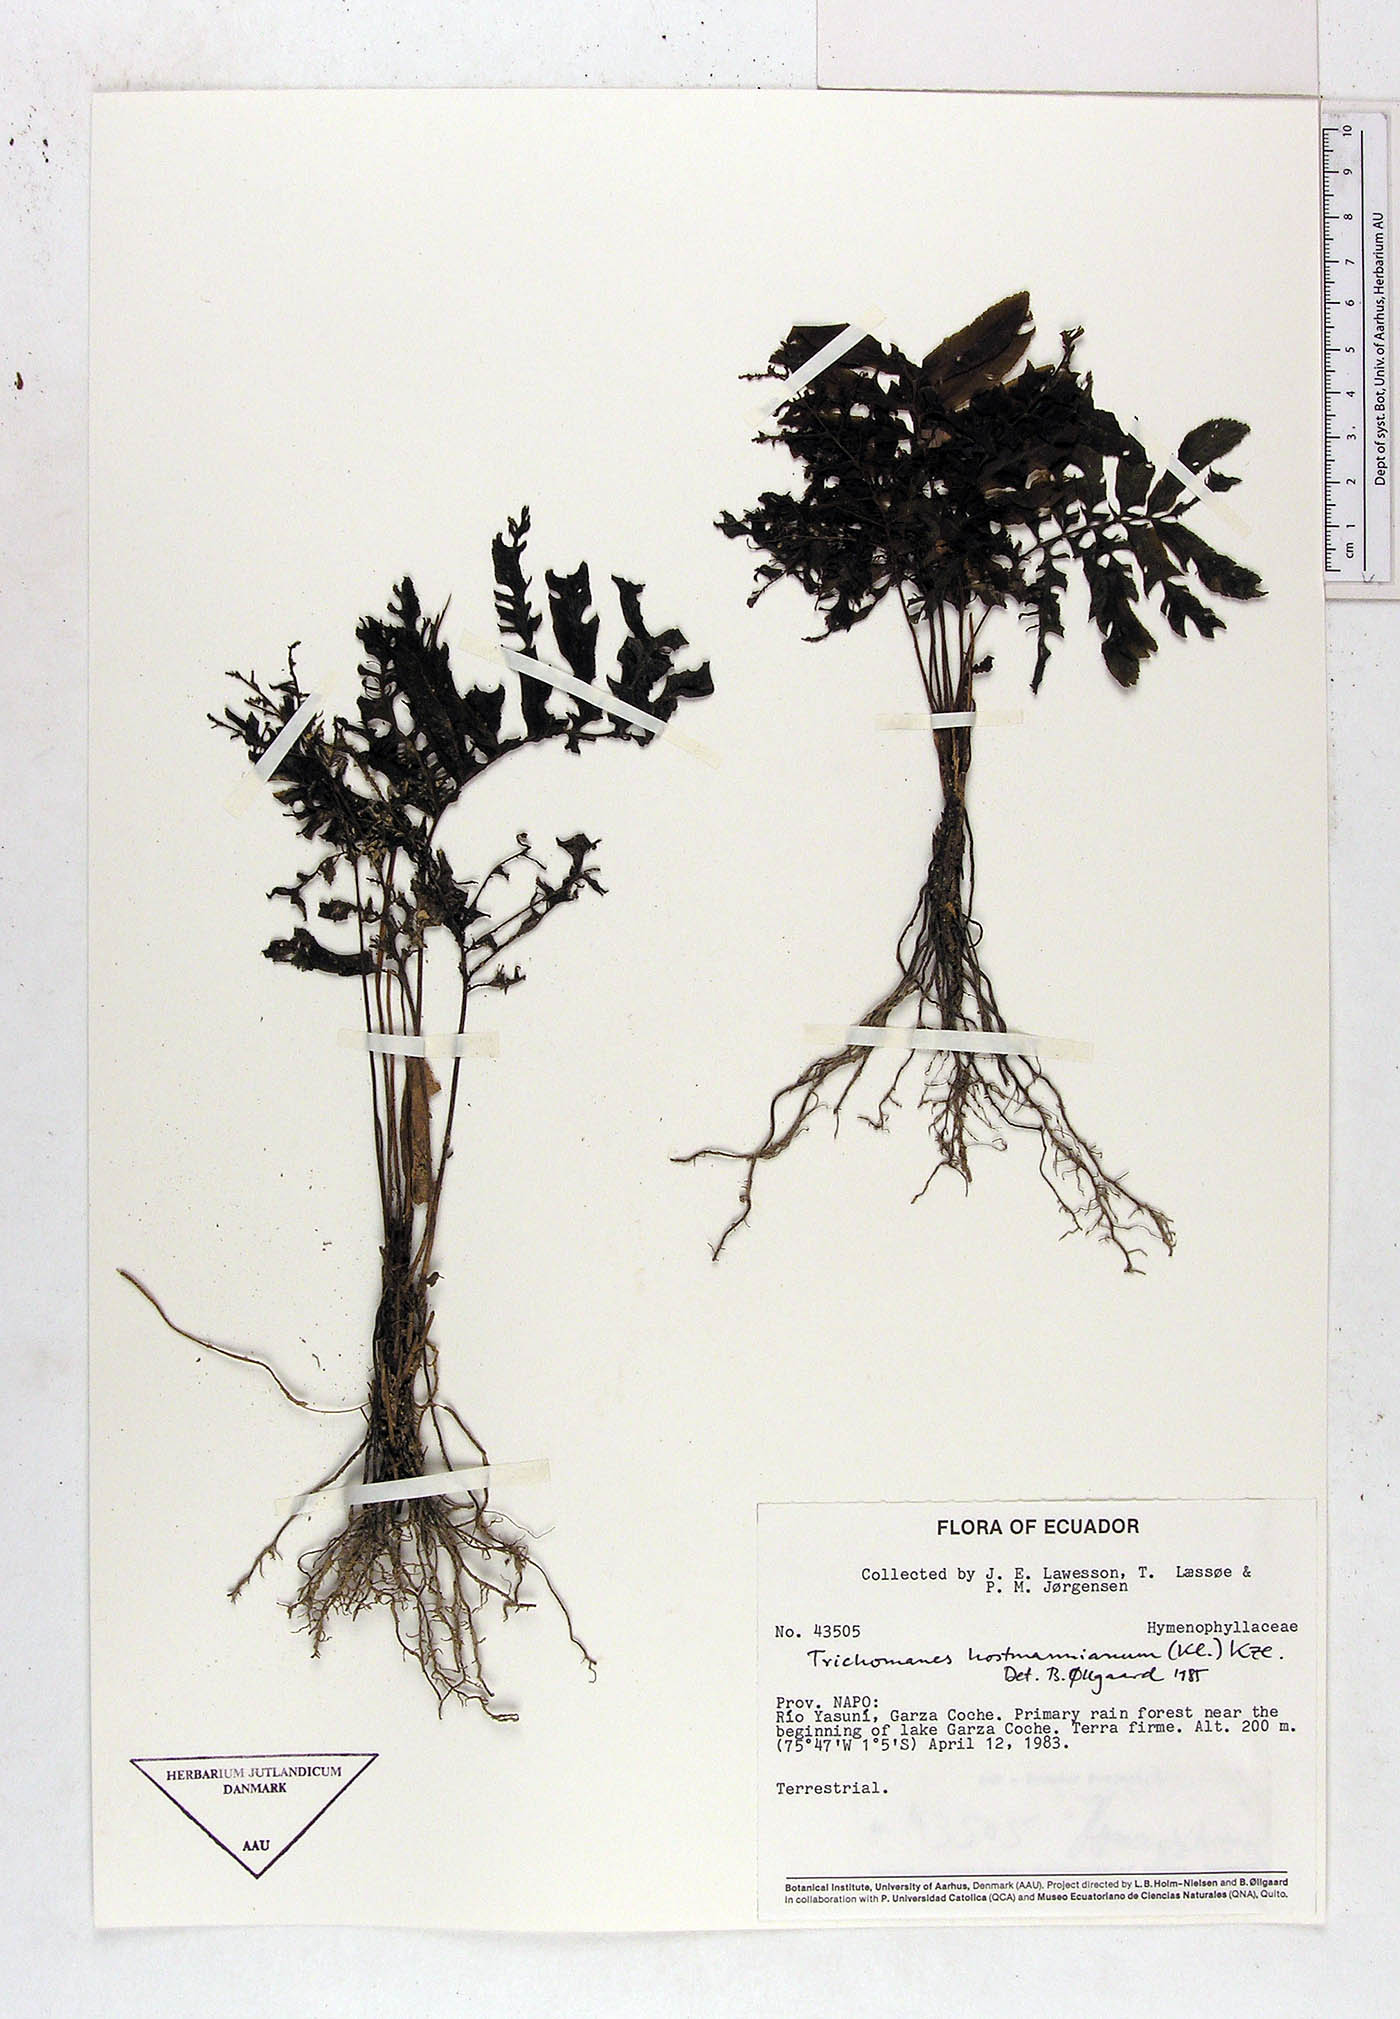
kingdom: Plantae
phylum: Tracheophyta
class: Polypodiopsida
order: Hymenophyllales
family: Hymenophyllaceae
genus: Trichomanes
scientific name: Trichomanes hostmannianum
